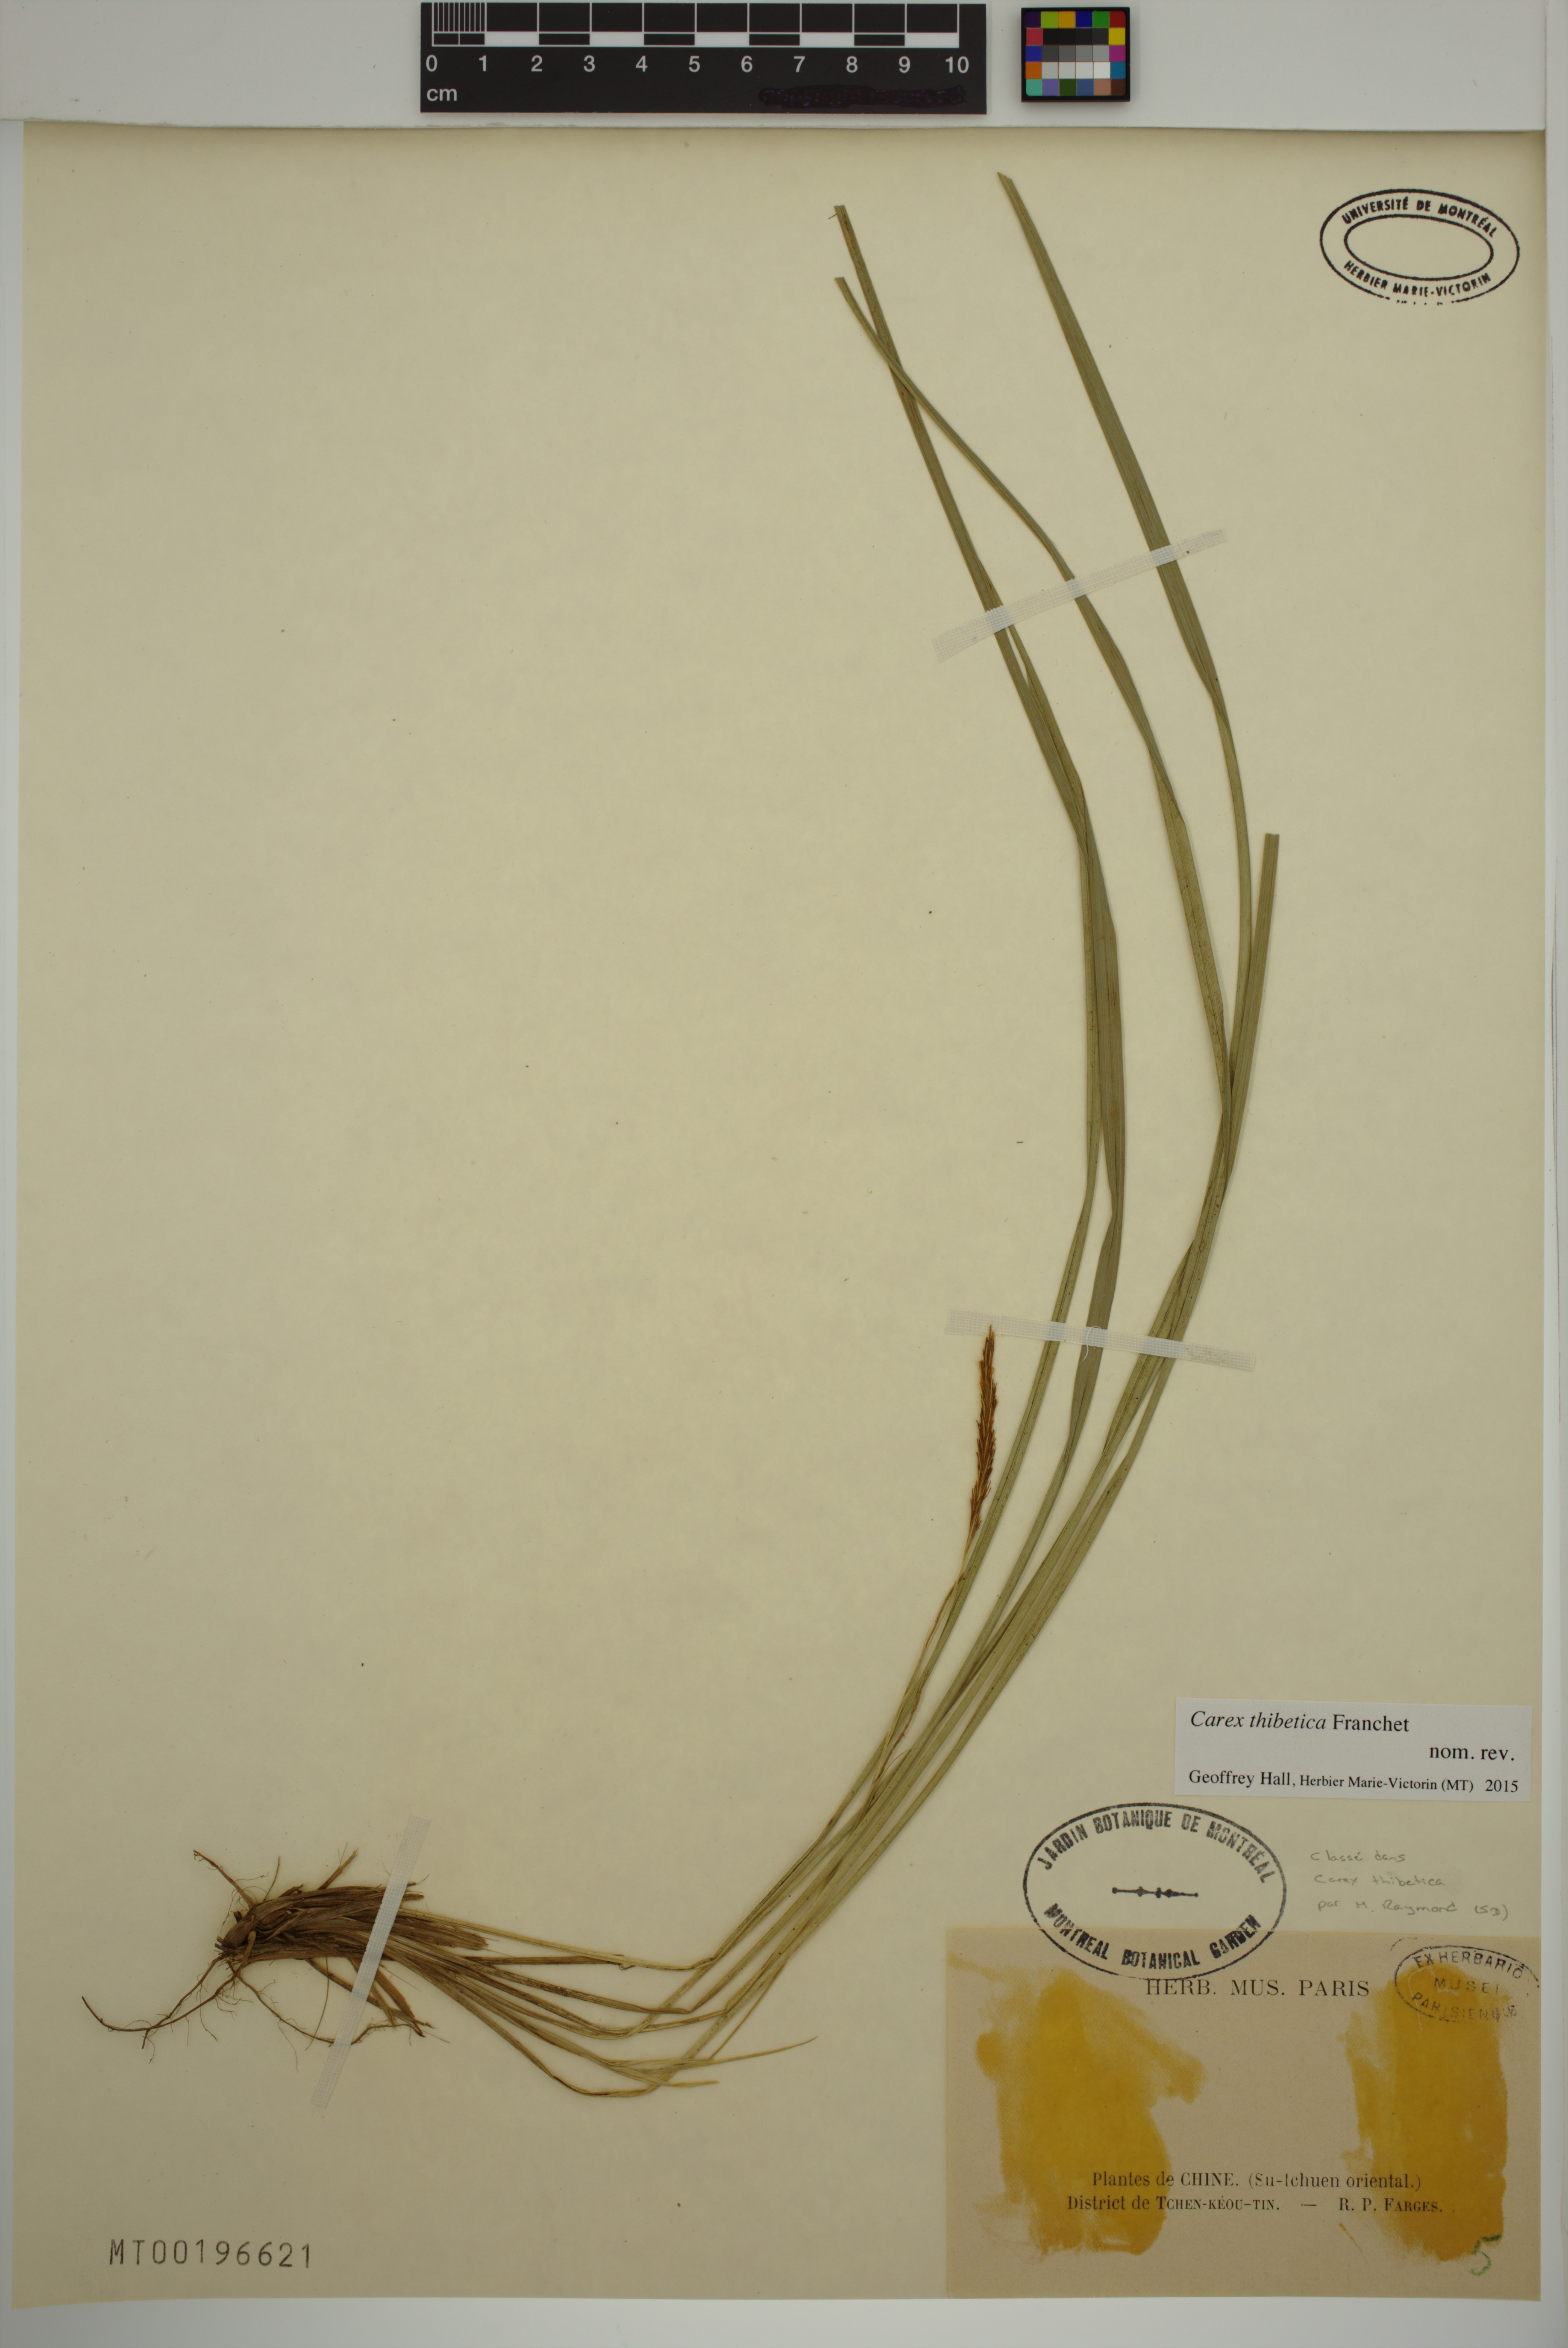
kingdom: Plantae
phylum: Tracheophyta
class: Liliopsida
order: Poales
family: Cyperaceae
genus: Carex
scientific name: Carex thibetica
